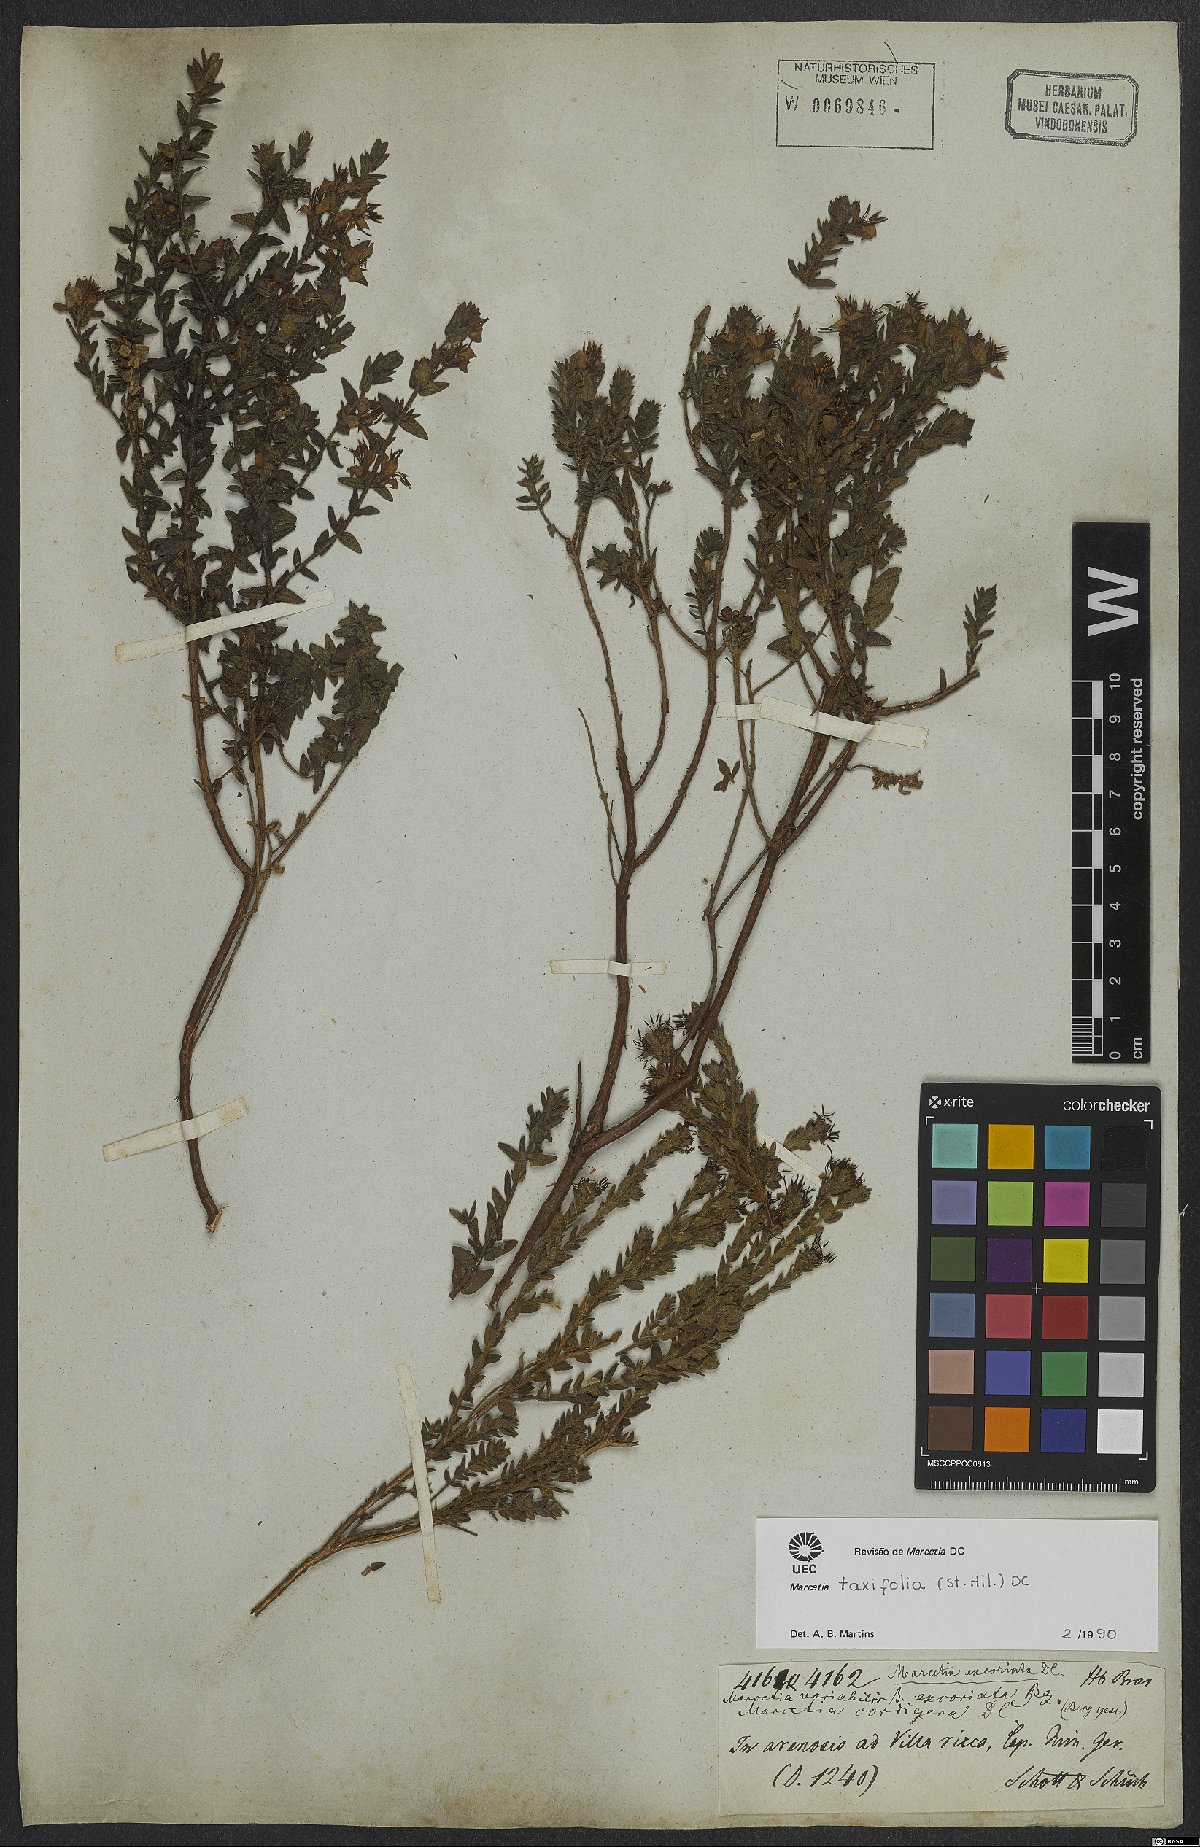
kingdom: Plantae
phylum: Tracheophyta
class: Magnoliopsida
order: Myrtales
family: Melastomataceae
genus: Marcetia
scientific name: Marcetia taxifolia
